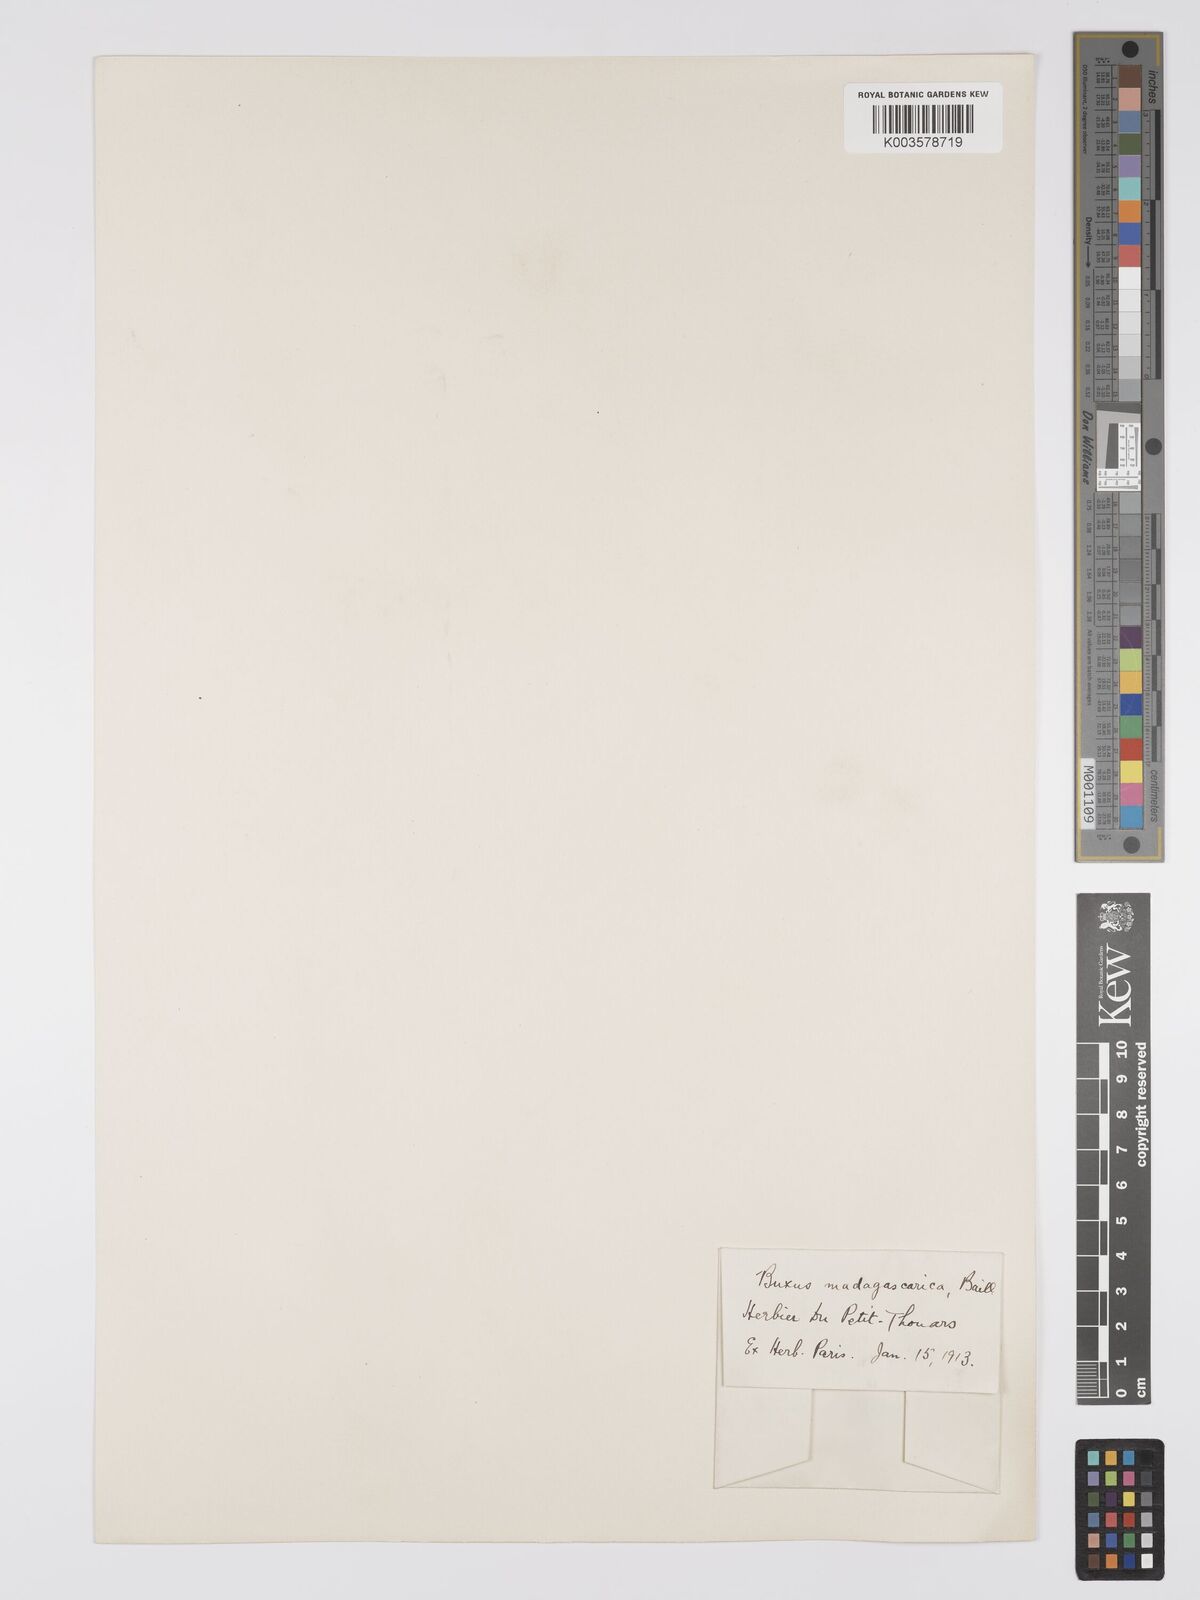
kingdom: Plantae
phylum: Tracheophyta
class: Magnoliopsida
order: Buxales
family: Buxaceae
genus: Buxus
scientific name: Buxus madagascarica
